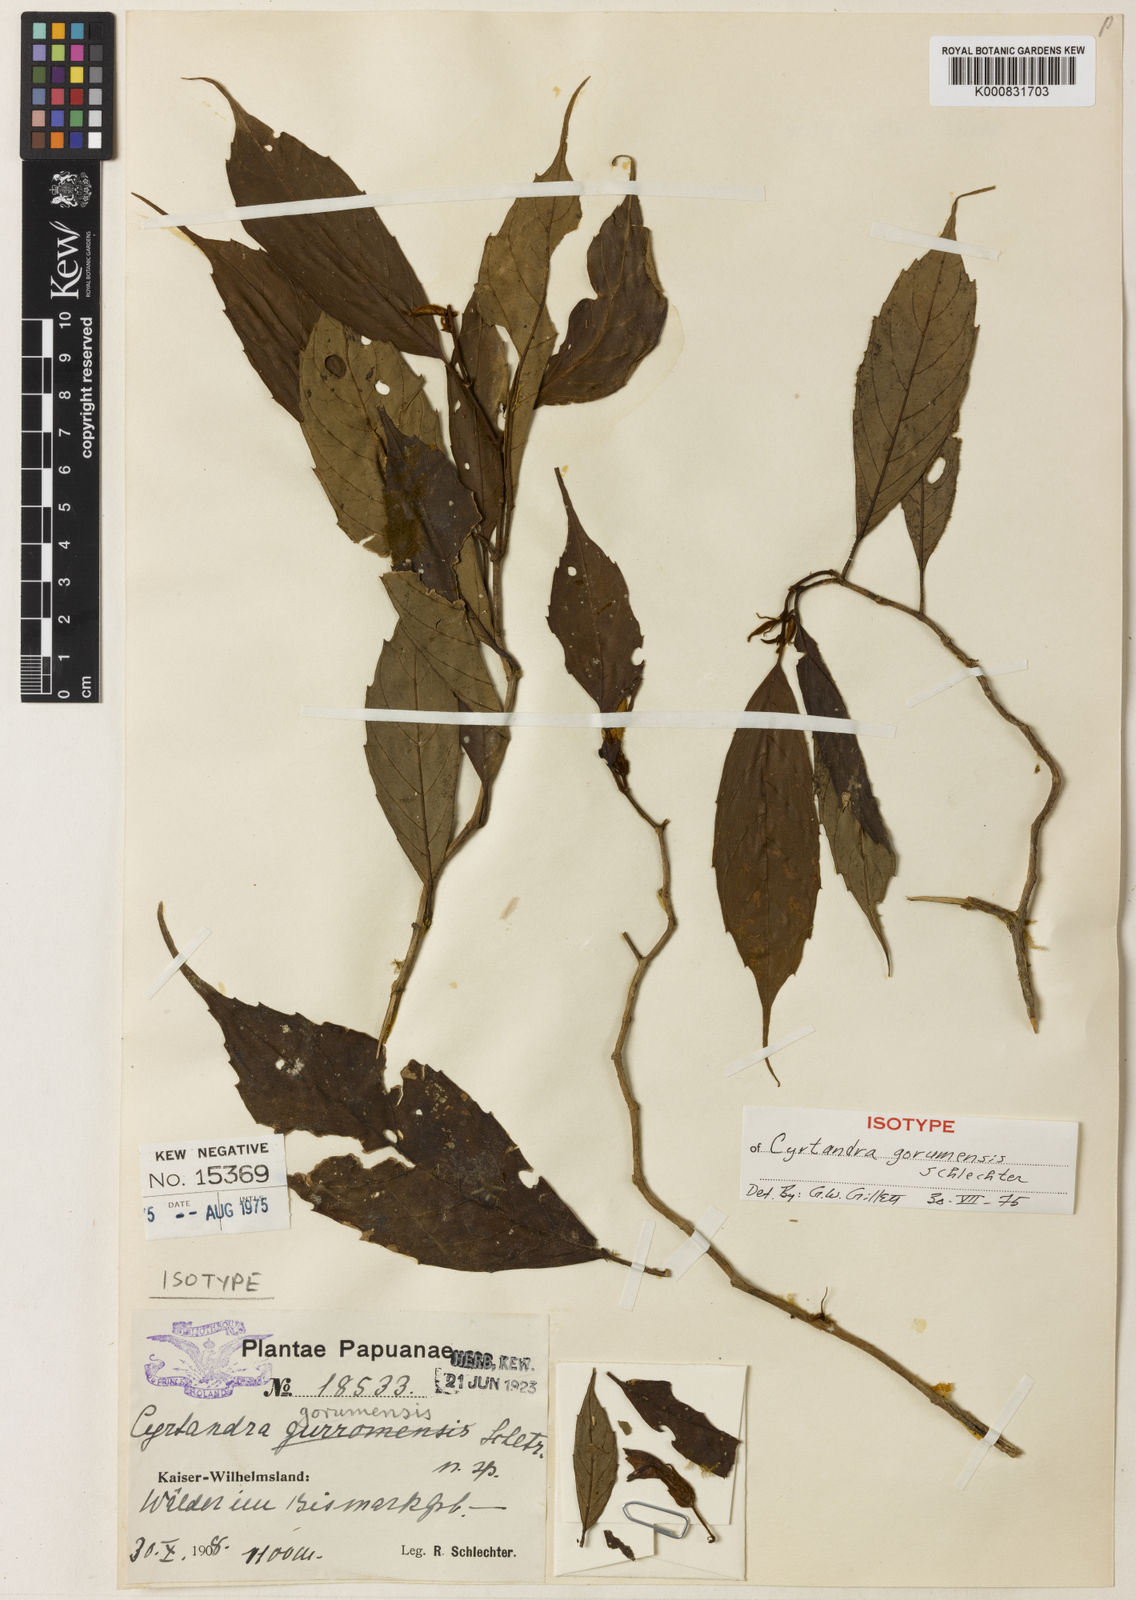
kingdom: Plantae
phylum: Tracheophyta
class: Magnoliopsida
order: Lamiales
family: Gesneriaceae
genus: Cyrtandra
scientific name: Cyrtandra gorumensis
